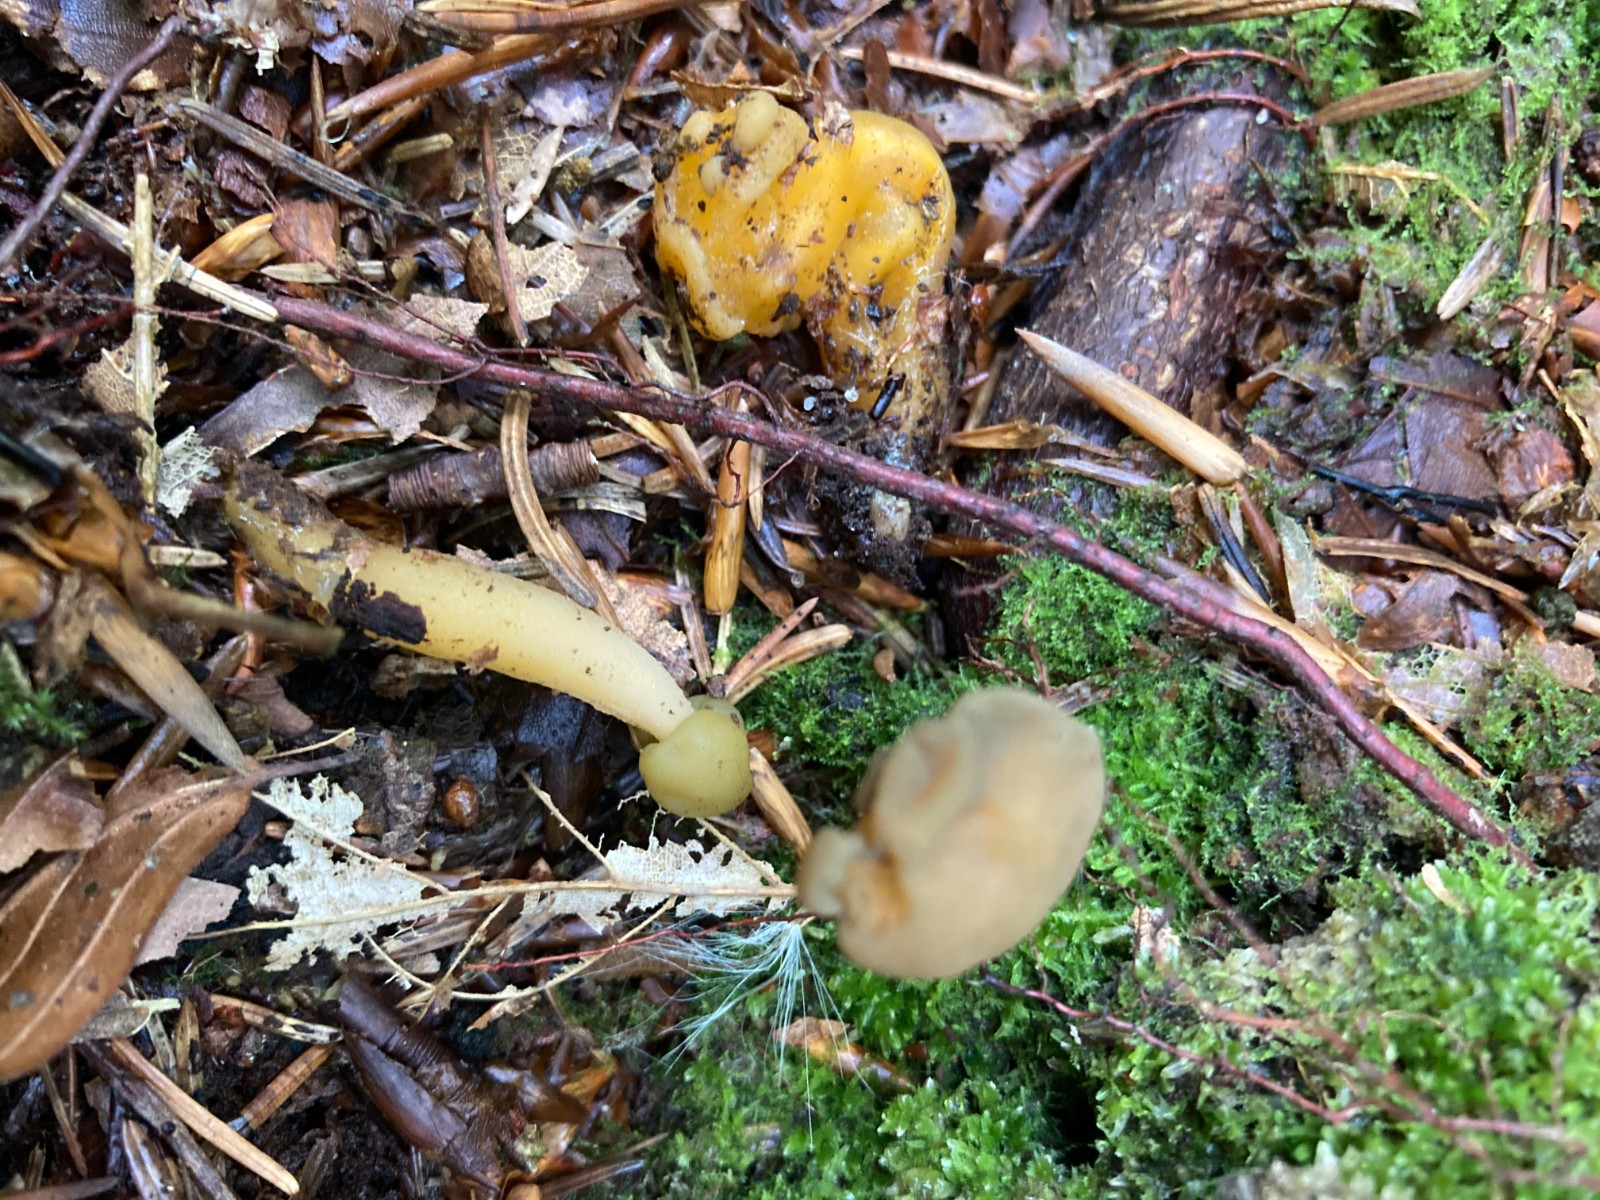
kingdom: Fungi
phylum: Ascomycota
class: Leotiomycetes
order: Leotiales
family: Leotiaceae
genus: Leotia
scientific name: Leotia lubrica
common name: ravsvamp
